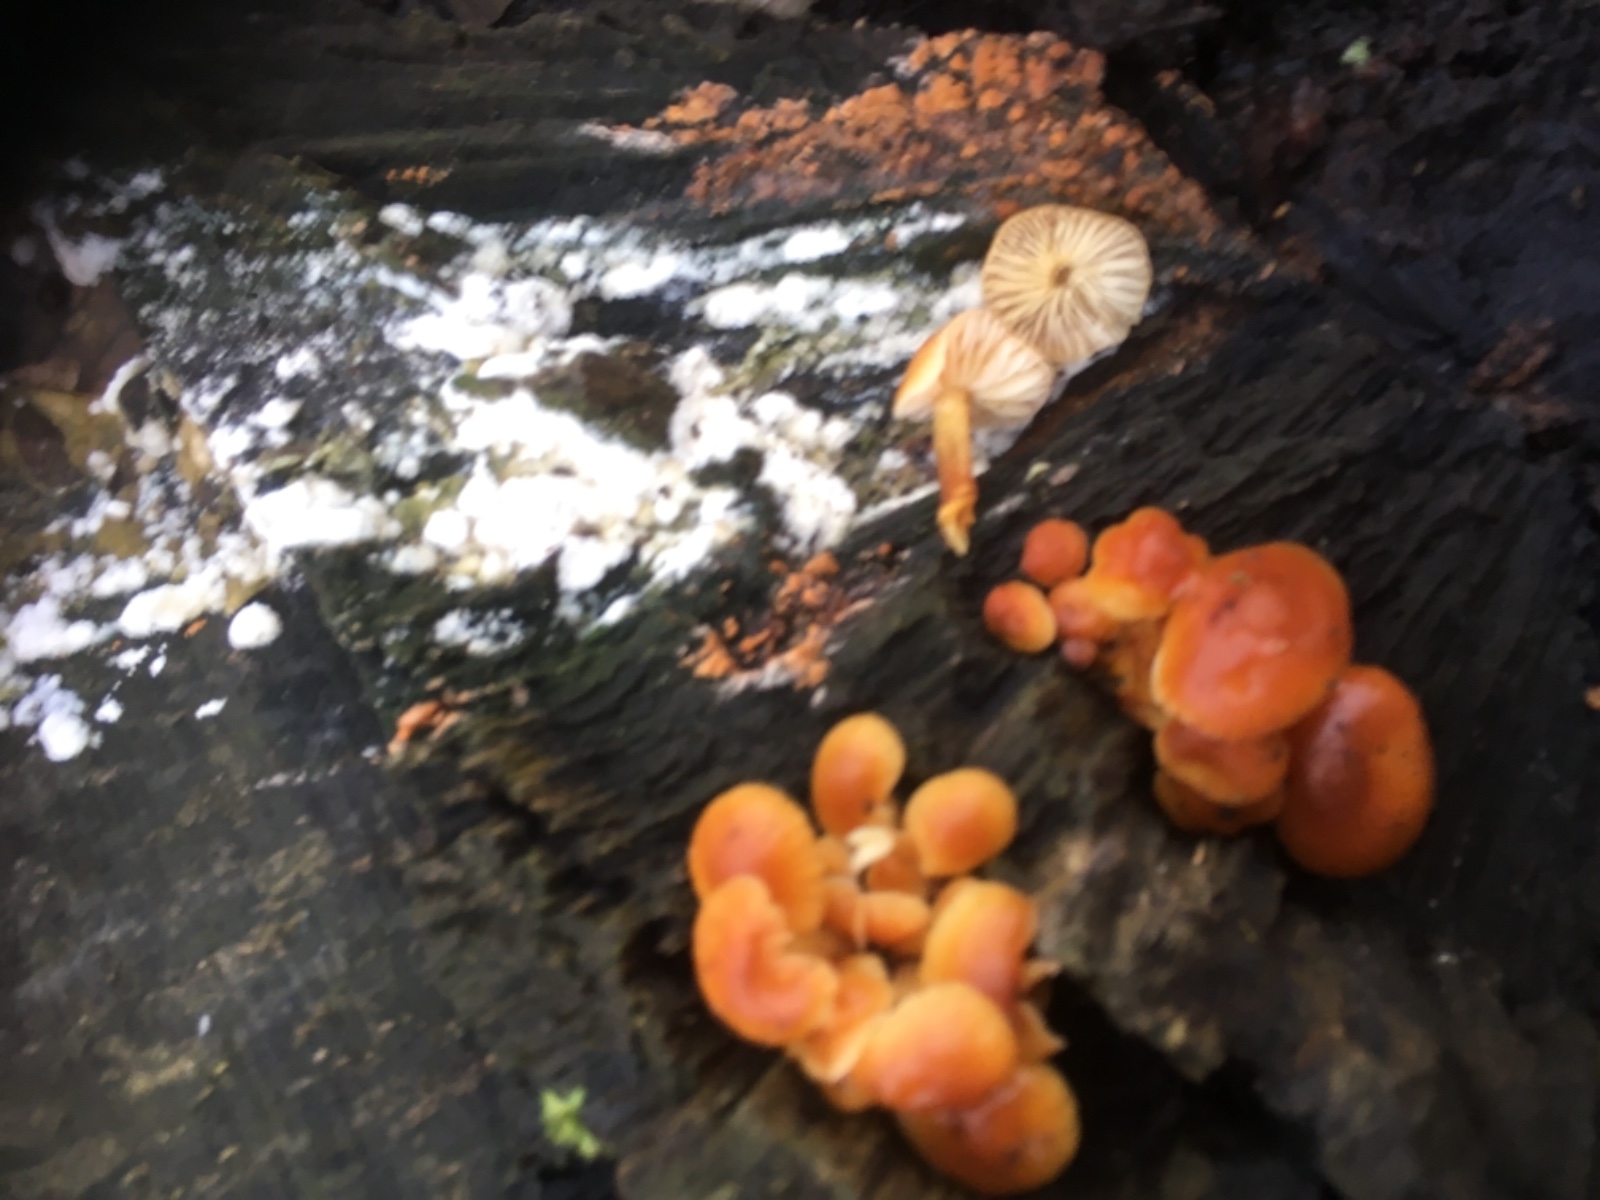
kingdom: Fungi
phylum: Basidiomycota
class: Agaricomycetes
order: Agaricales
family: Physalacriaceae
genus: Flammulina
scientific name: Flammulina velutipes
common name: gul fløjlsfod
